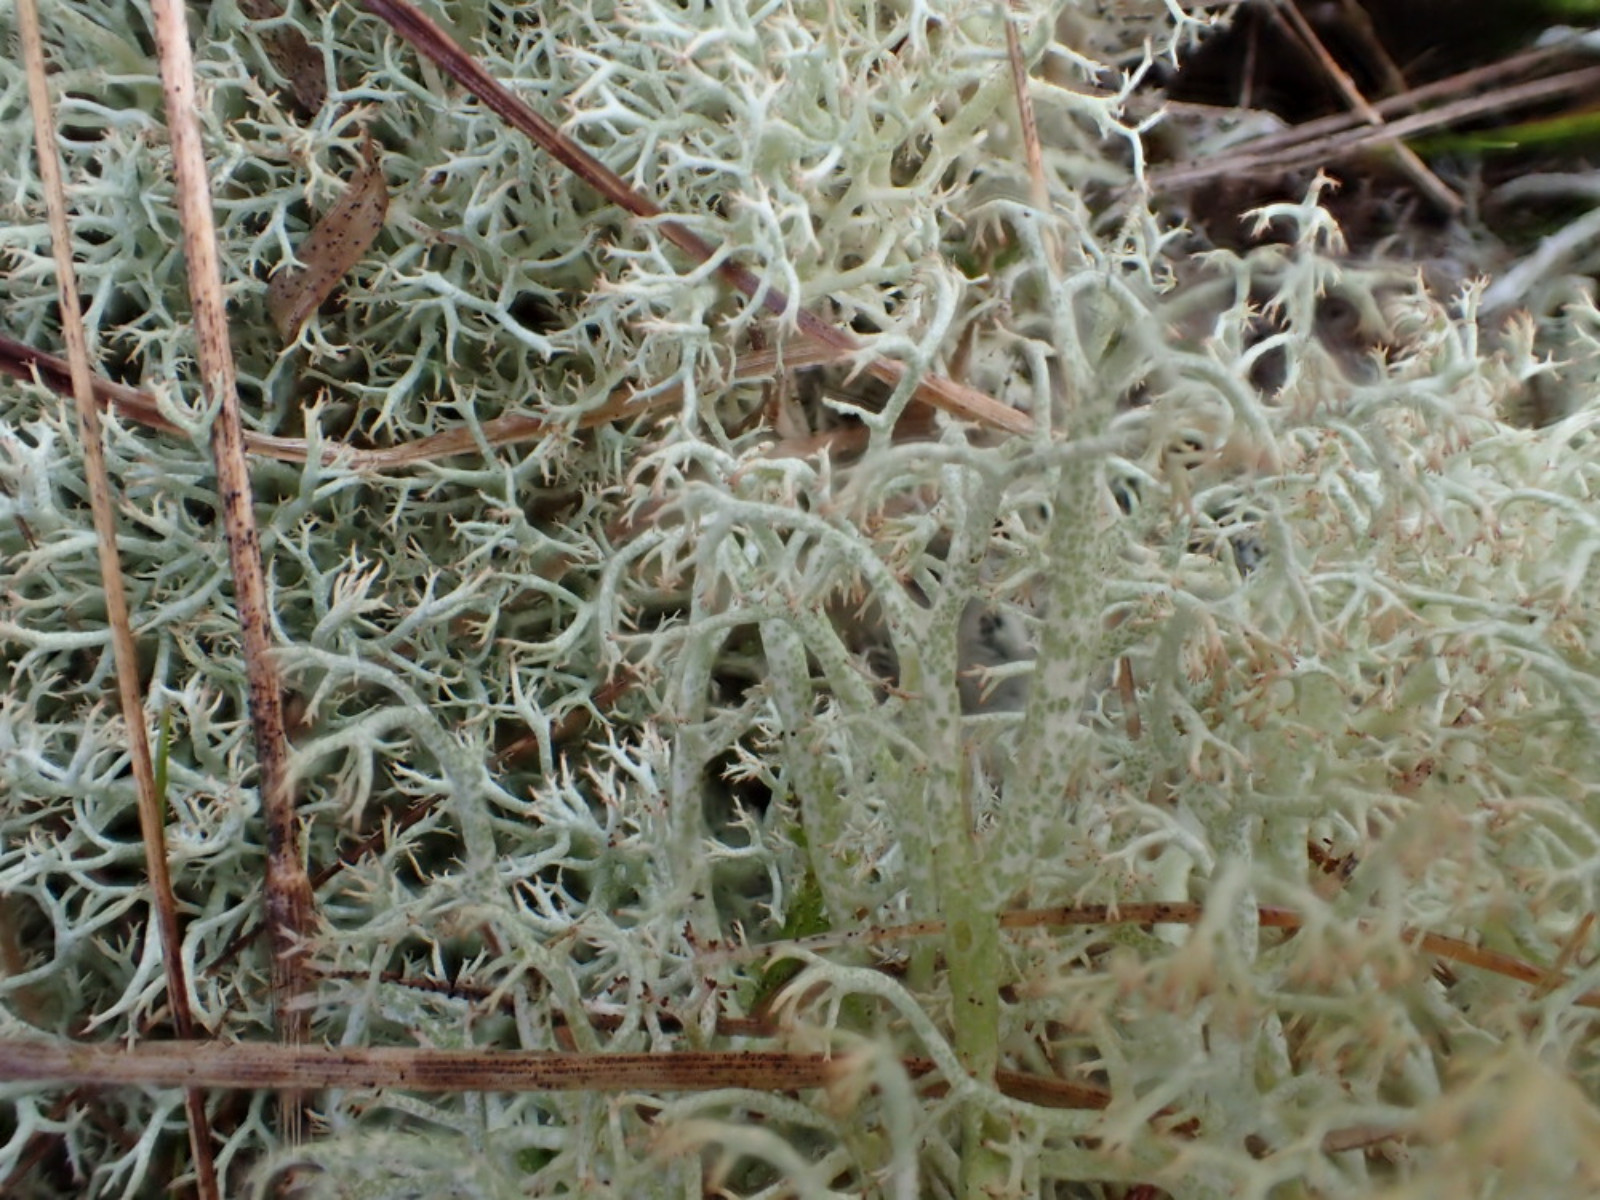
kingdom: Fungi
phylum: Ascomycota
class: Lecanoromycetes
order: Lecanorales
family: Cladoniaceae
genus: Cladonia
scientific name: Cladonia ciliata
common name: spinkel rensdyrlav
